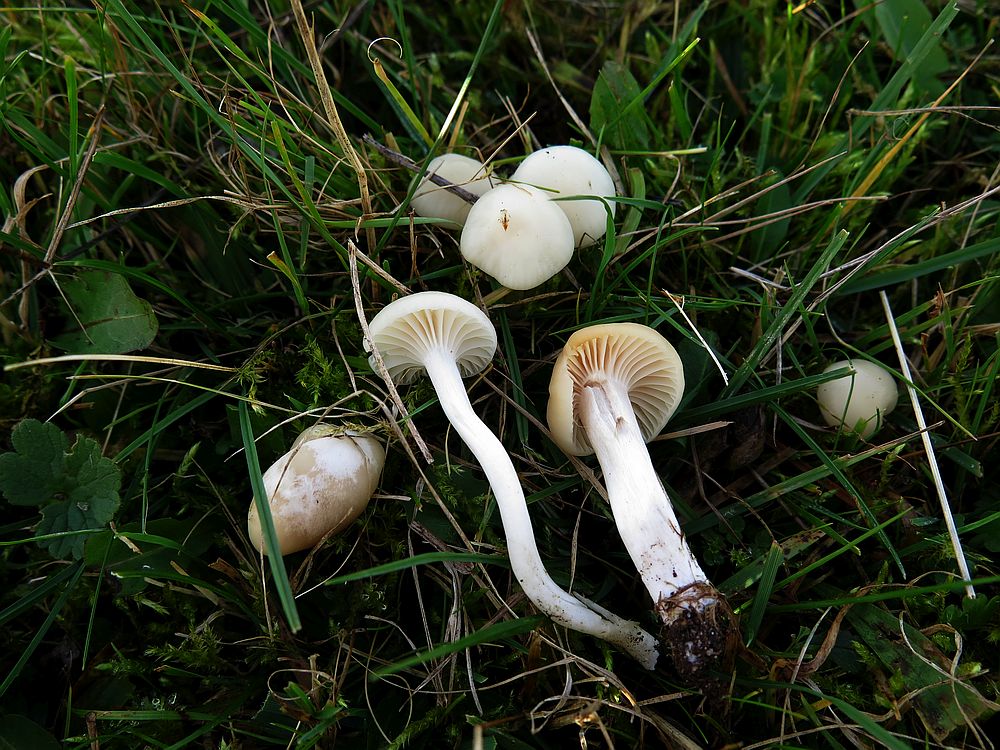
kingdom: Fungi
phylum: Basidiomycota
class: Agaricomycetes
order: Agaricales
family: Hygrophoraceae
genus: Cuphophyllus
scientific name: Cuphophyllus virgineus
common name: snehvid vokshat
